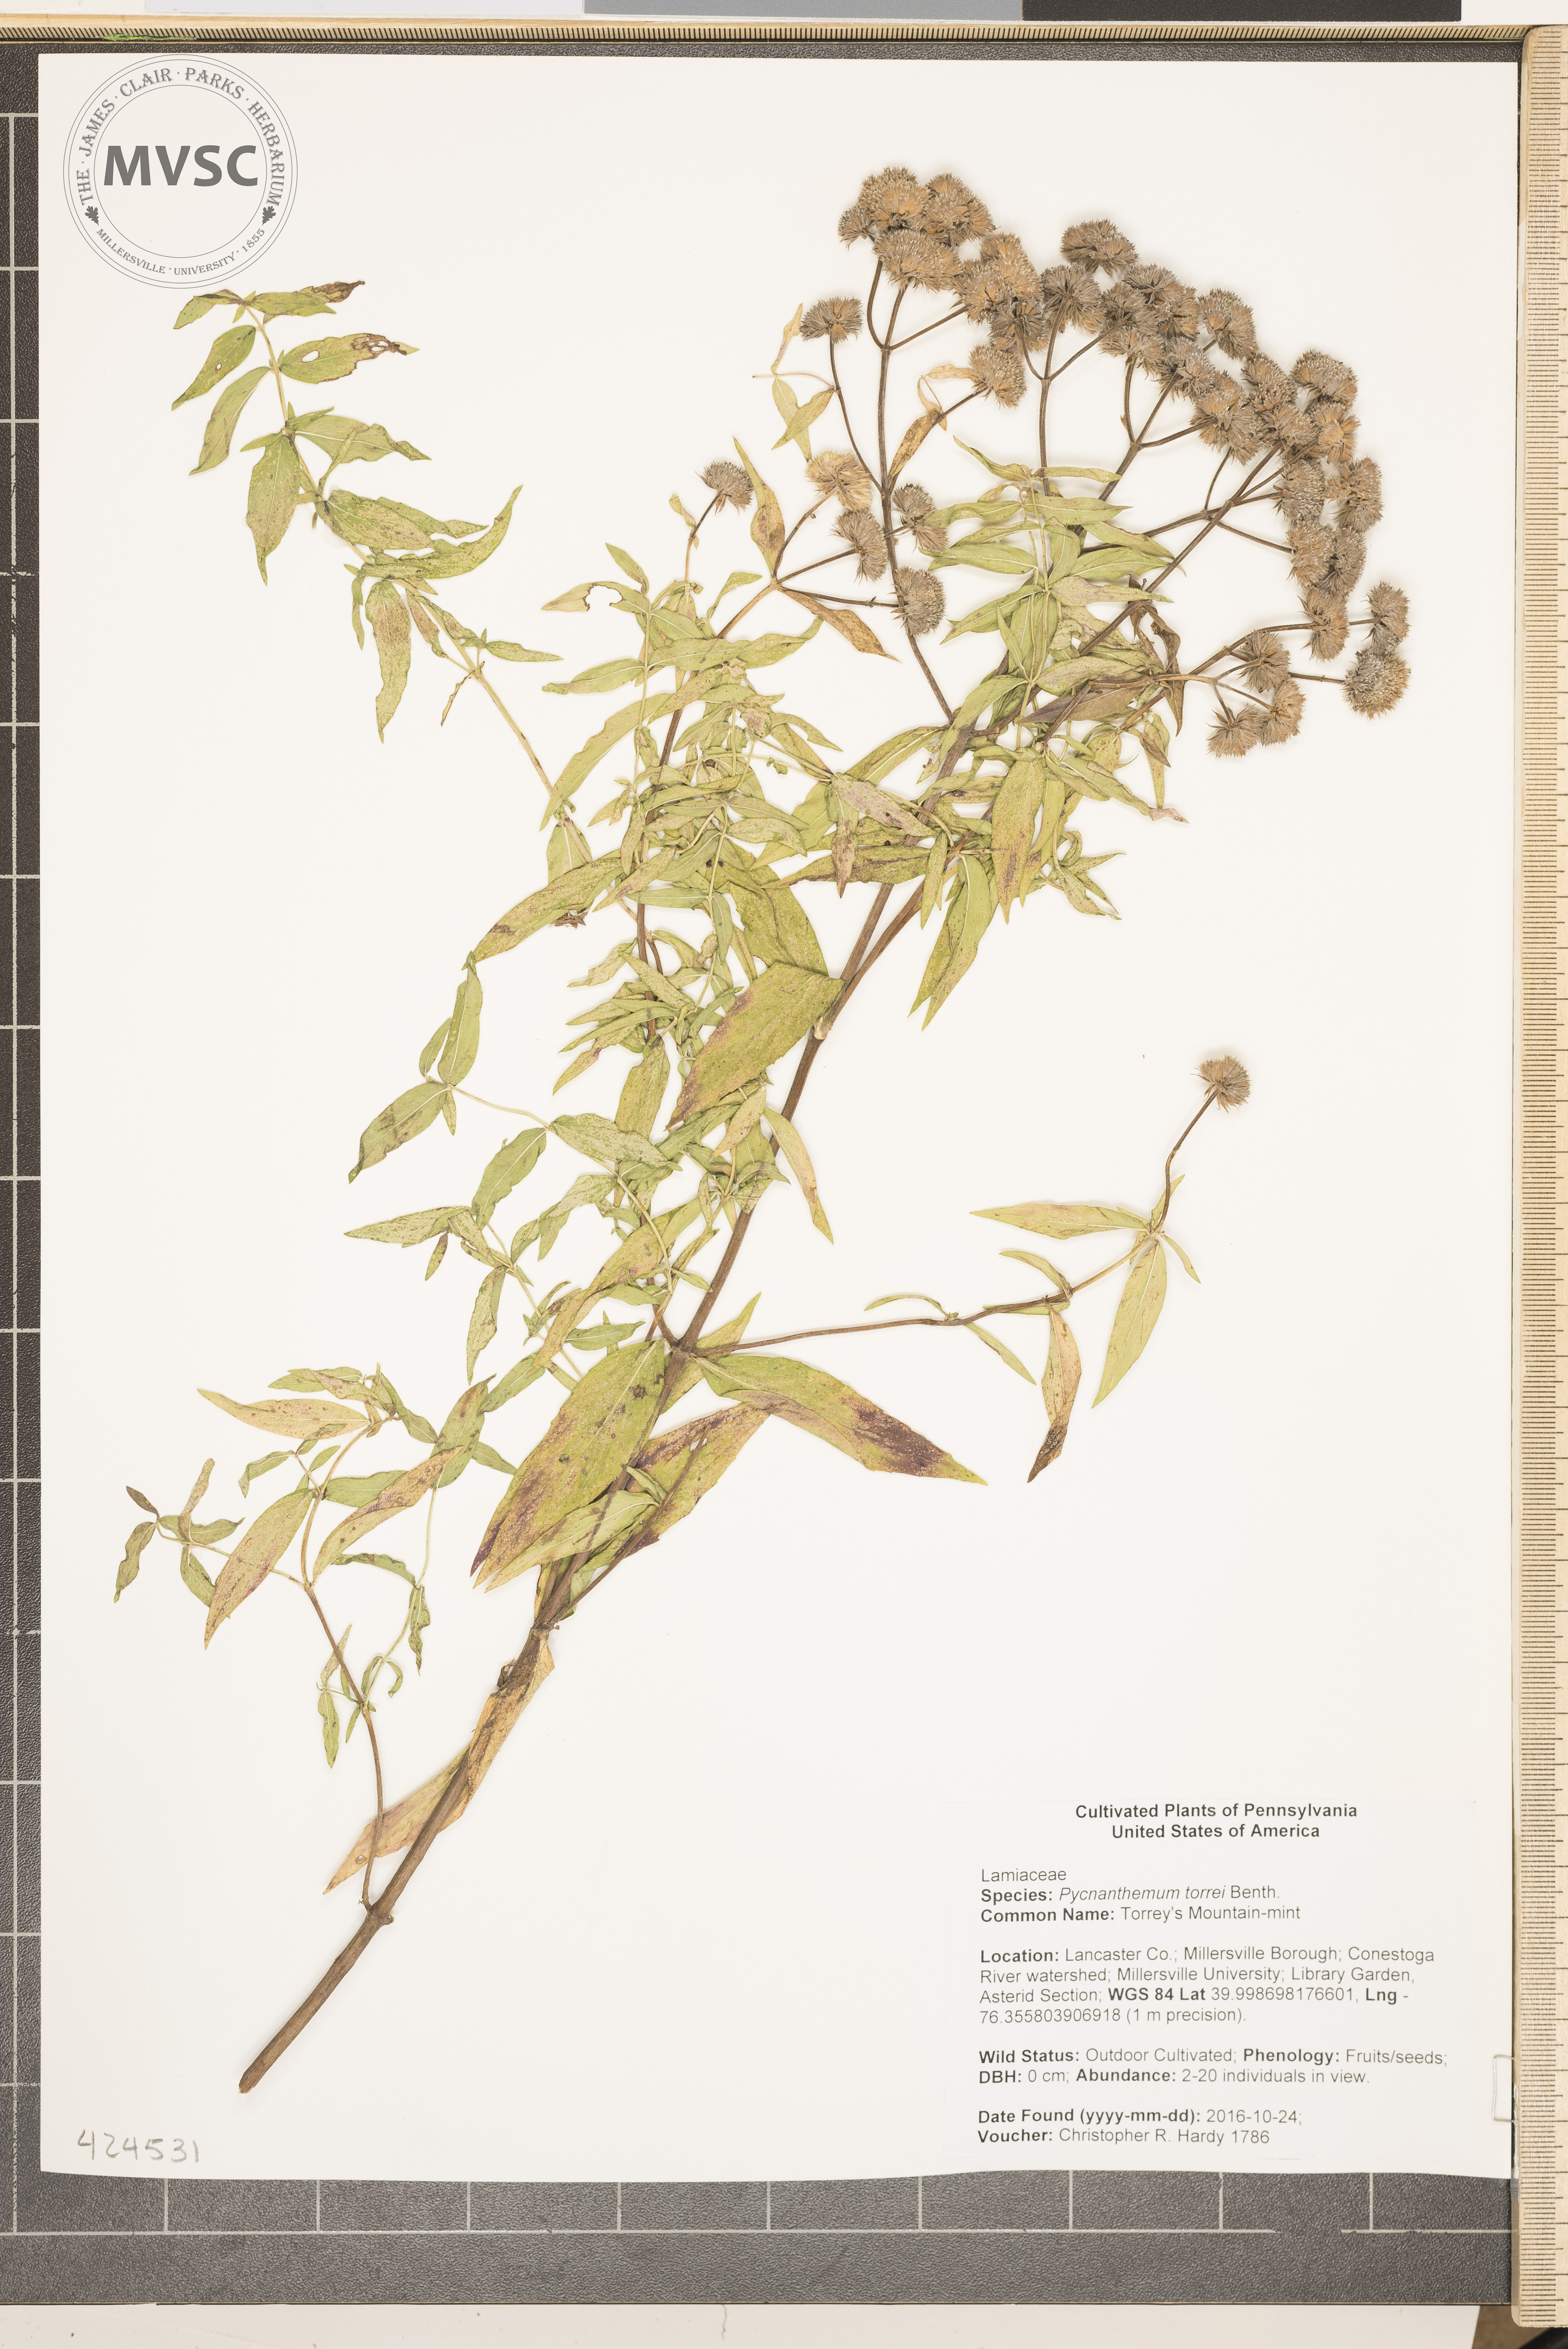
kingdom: Plantae
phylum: Tracheophyta
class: Magnoliopsida
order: Lamiales
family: Lamiaceae
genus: Pycnanthemum
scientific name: Pycnanthemum torreyi
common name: Torrey's Mountain-mint
